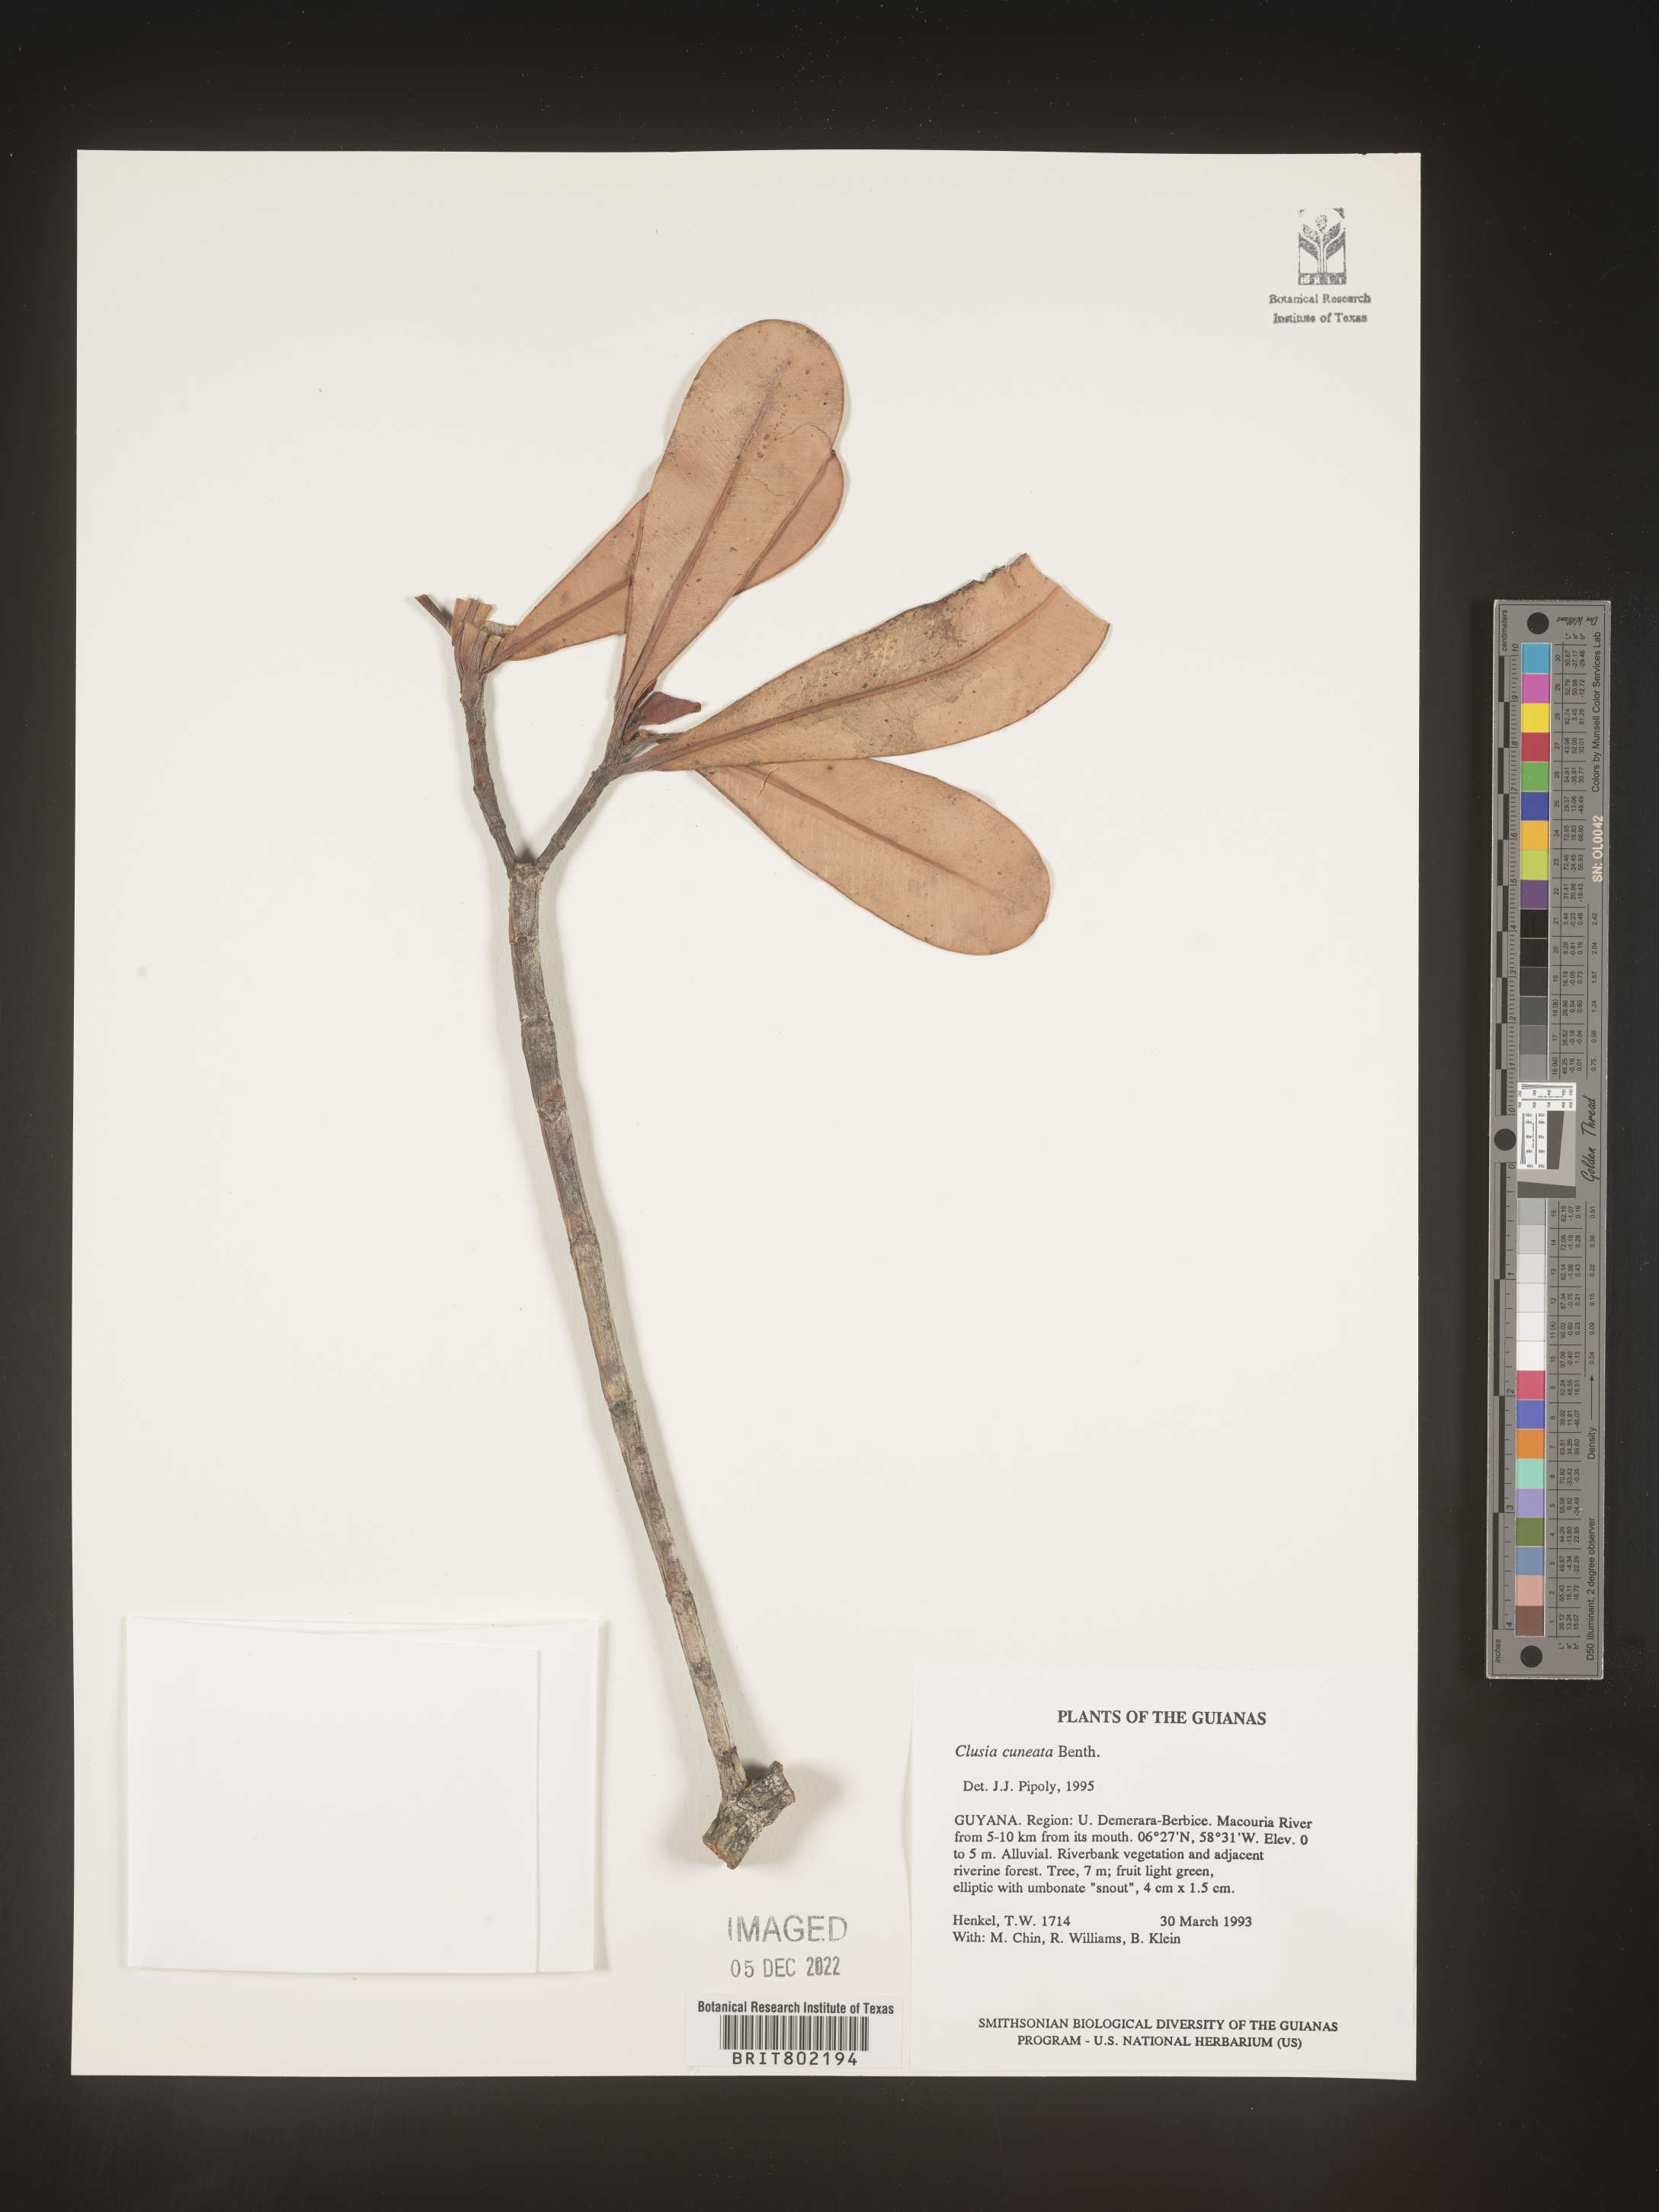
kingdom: Plantae
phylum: Tracheophyta
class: Magnoliopsida
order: Malpighiales
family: Clusiaceae
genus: Clusia
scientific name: Clusia
